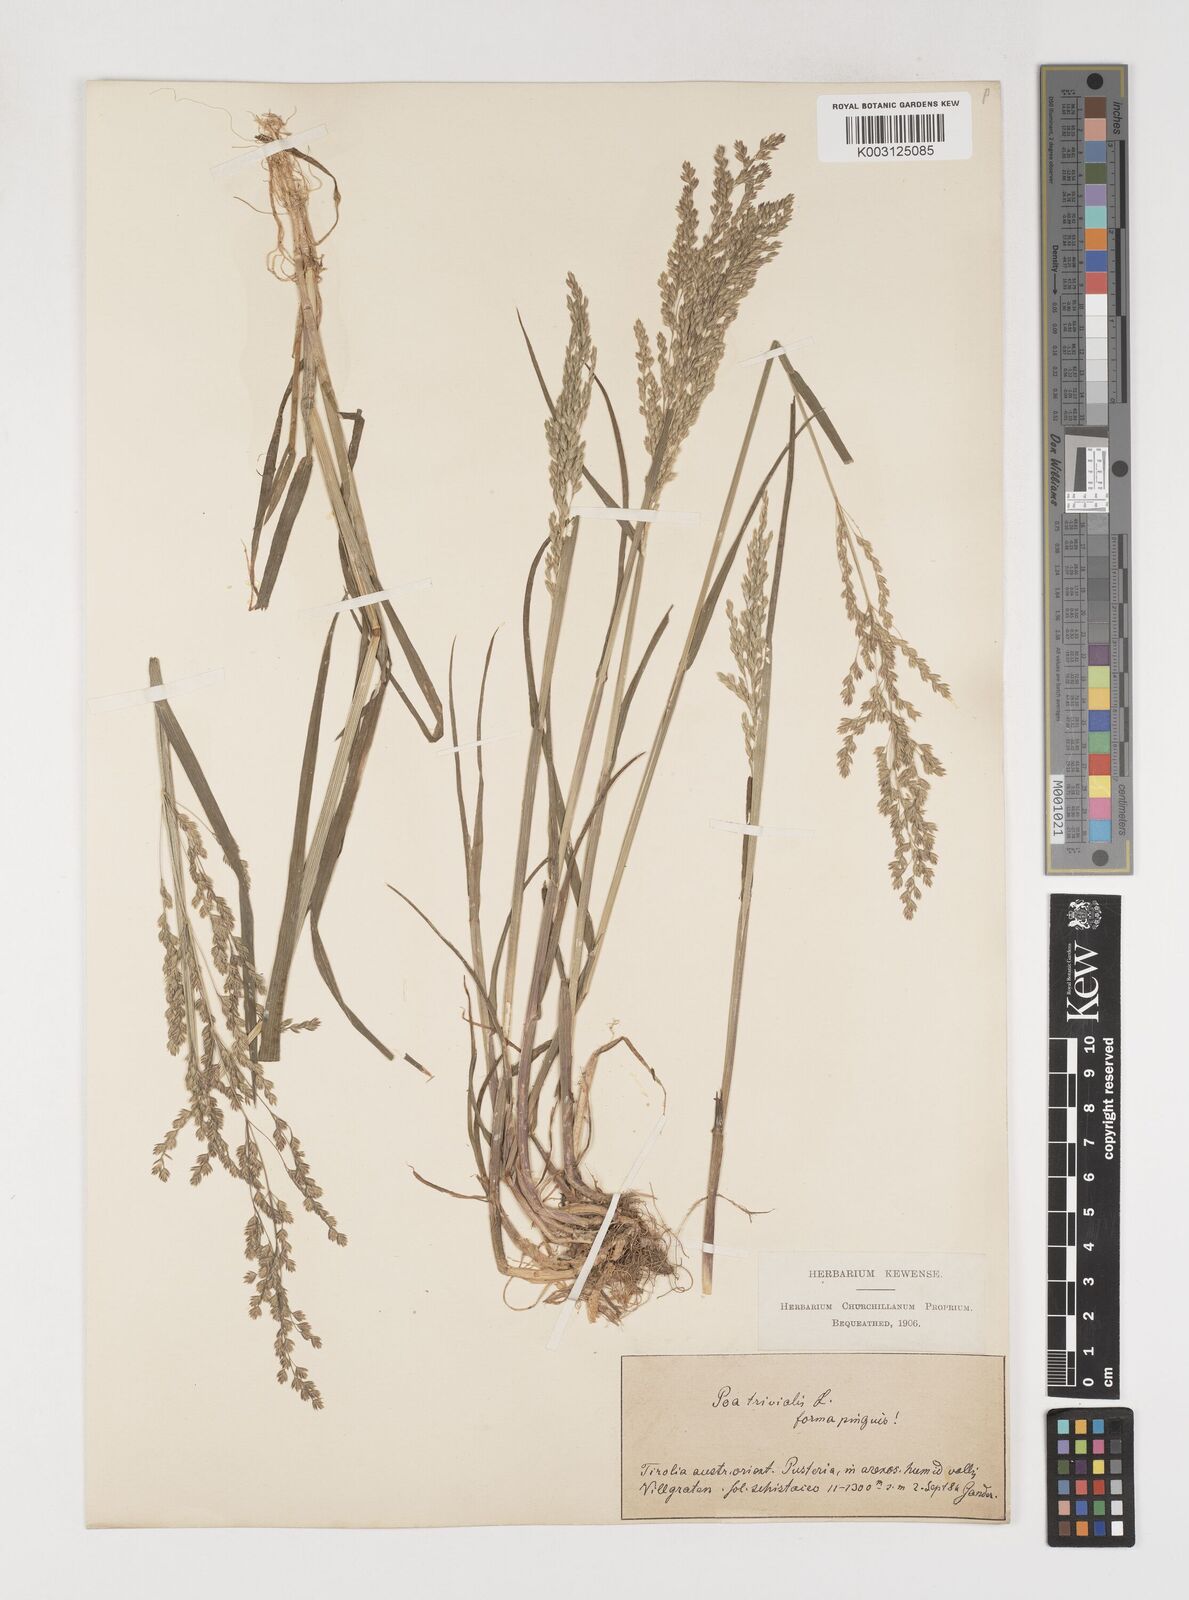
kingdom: Plantae
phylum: Tracheophyta
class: Liliopsida
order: Poales
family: Poaceae
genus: Poa
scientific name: Poa trivialis
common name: Rough bluegrass
